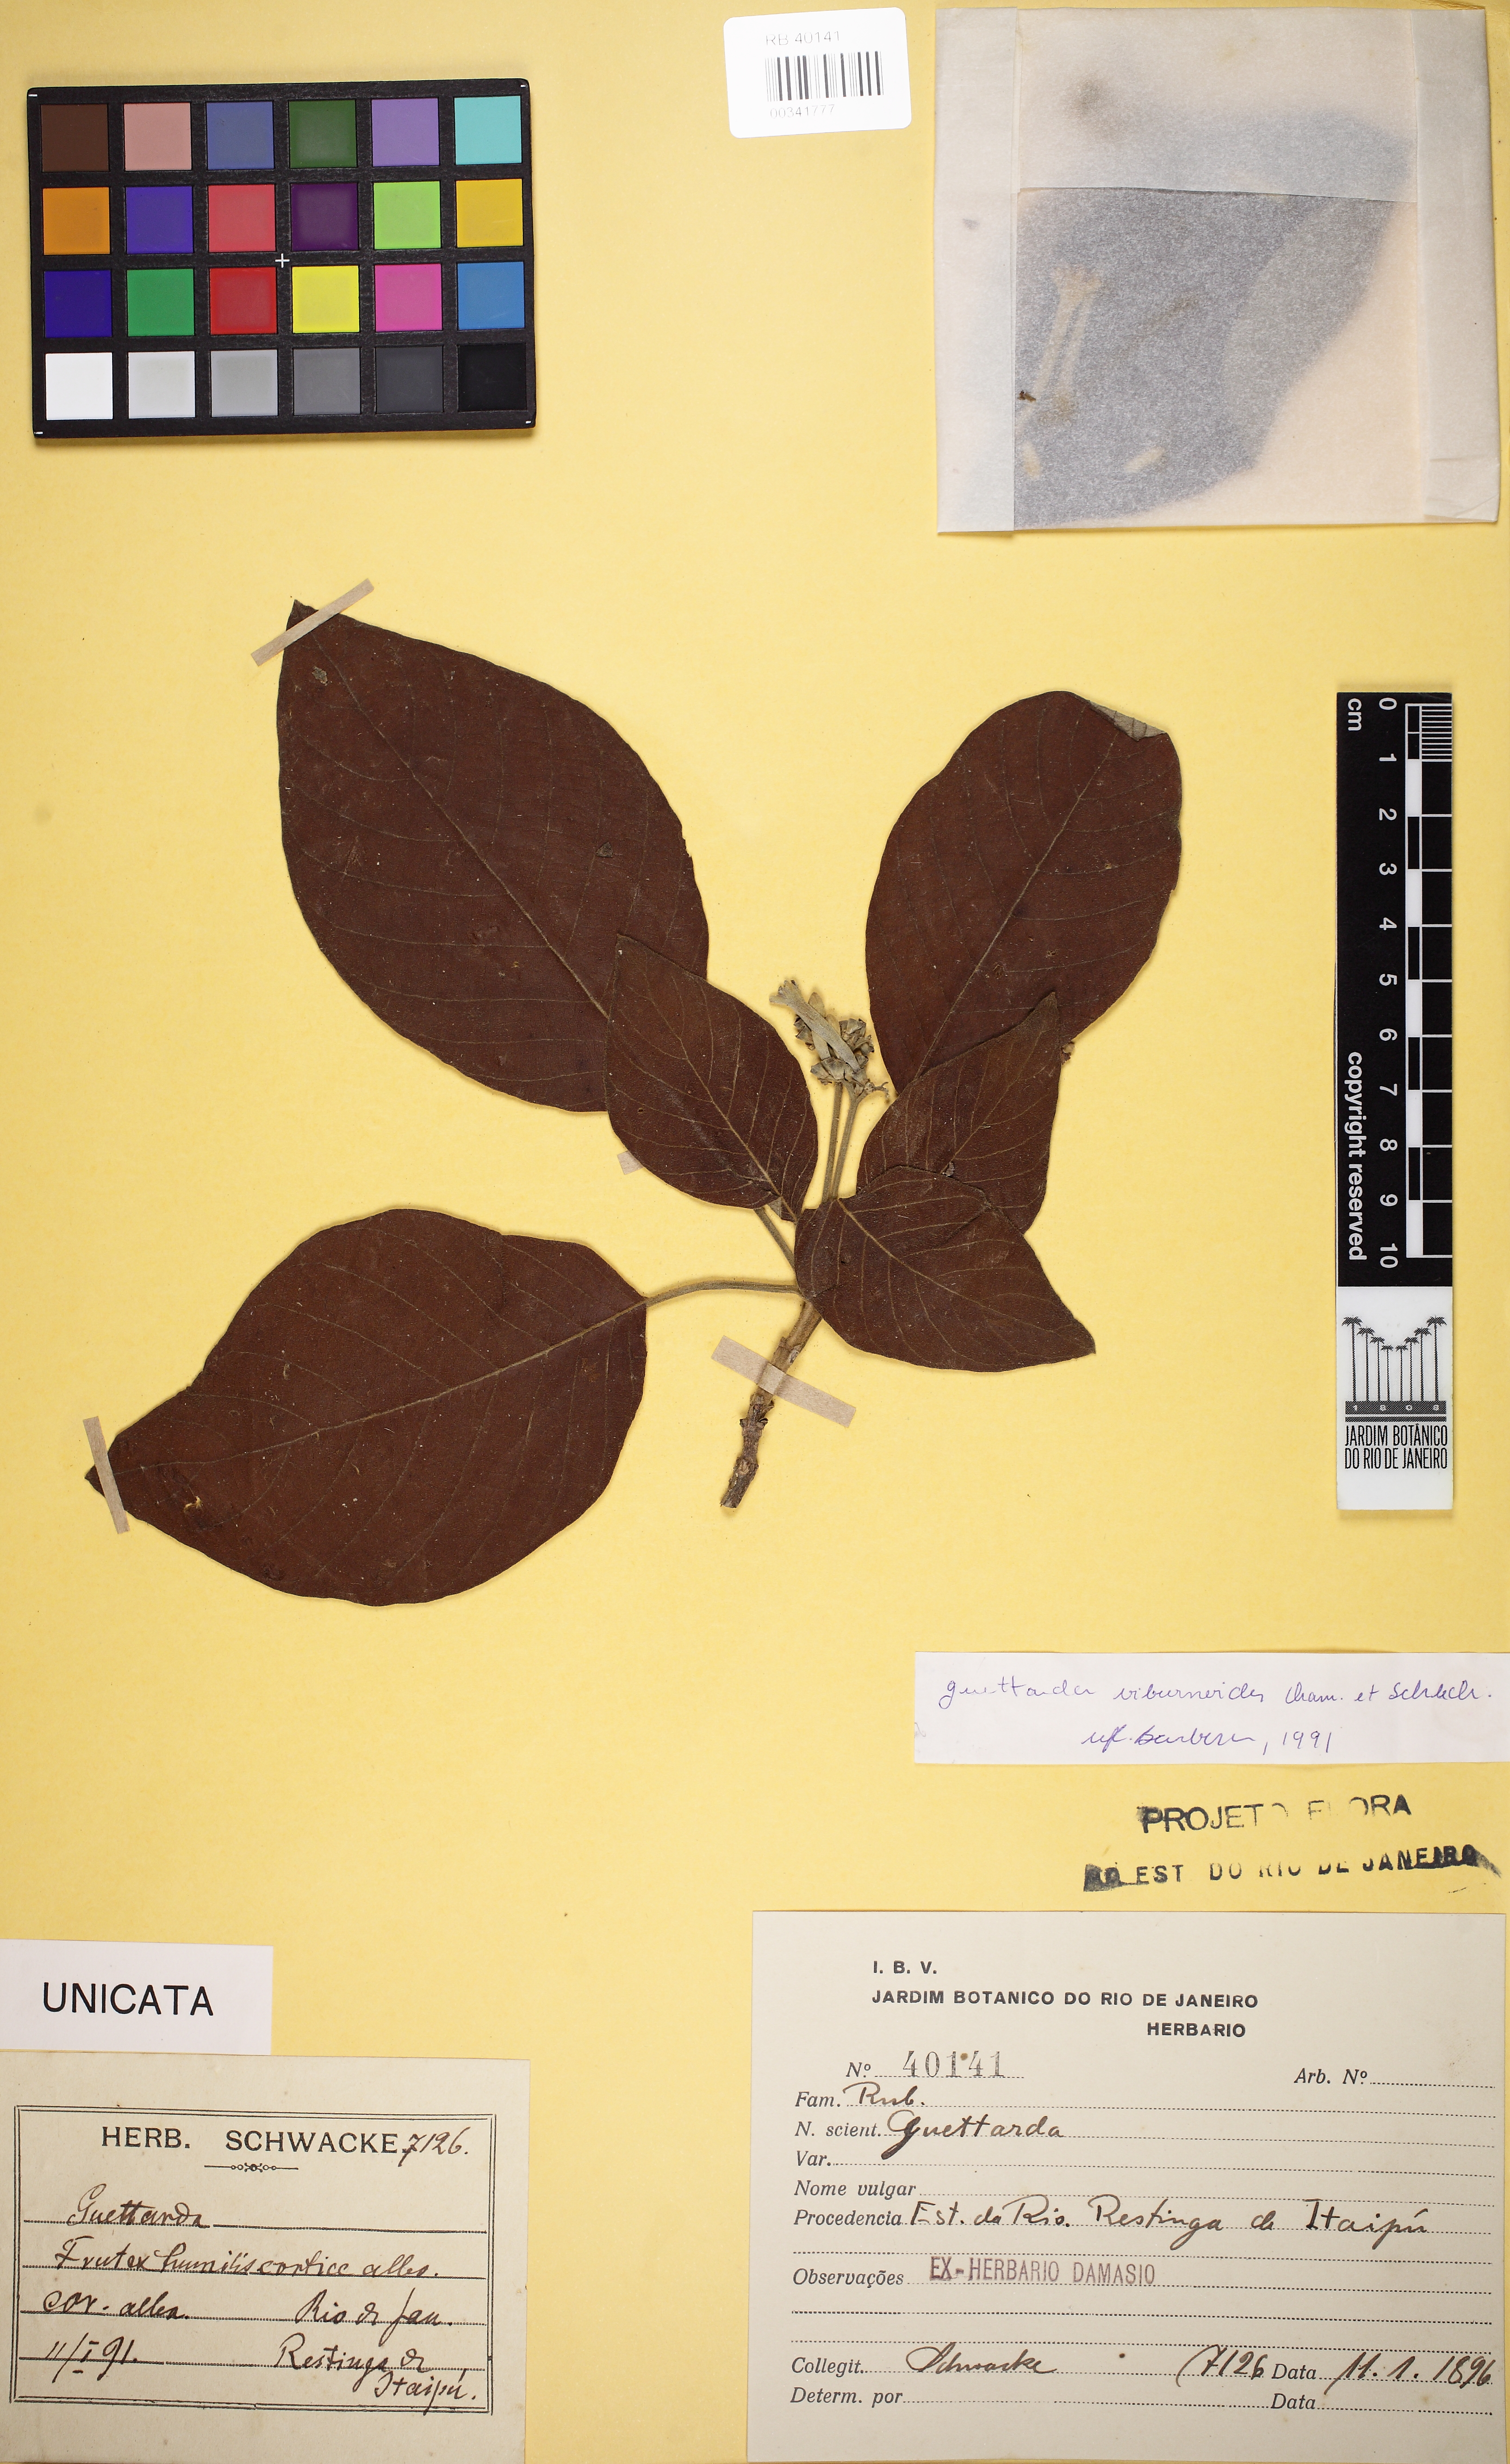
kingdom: Plantae
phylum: Tracheophyta
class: Magnoliopsida
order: Gentianales
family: Rubiaceae
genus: Guettarda
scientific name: Guettarda viburnoides
